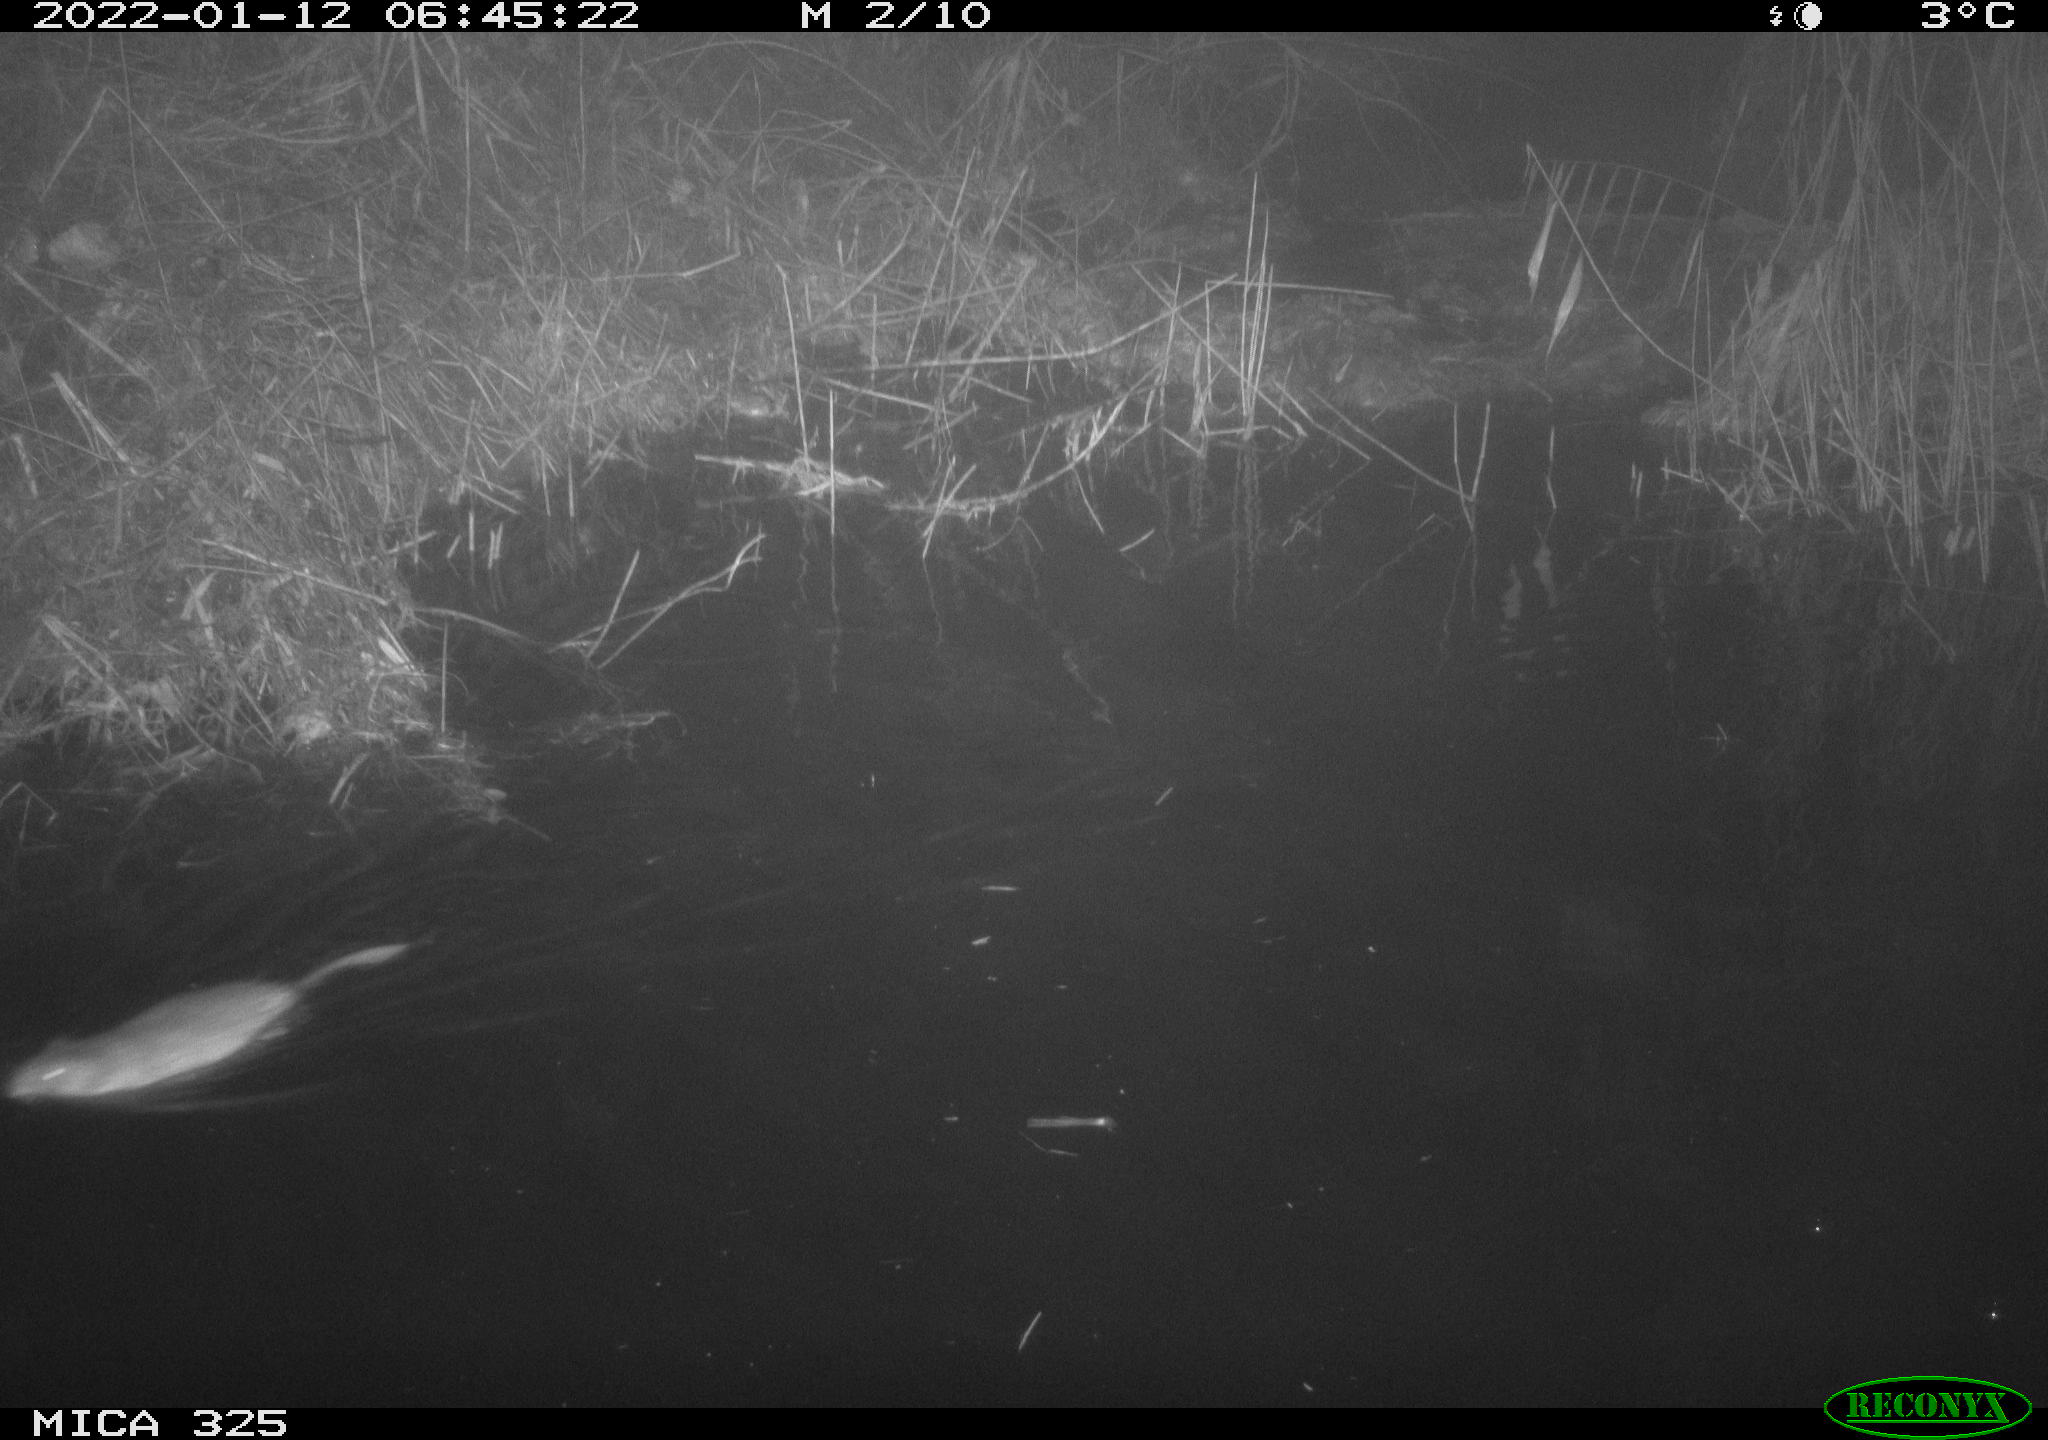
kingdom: Animalia
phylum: Chordata
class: Mammalia
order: Rodentia
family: Cricetidae
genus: Ondatra
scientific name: Ondatra zibethicus
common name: Muskrat
